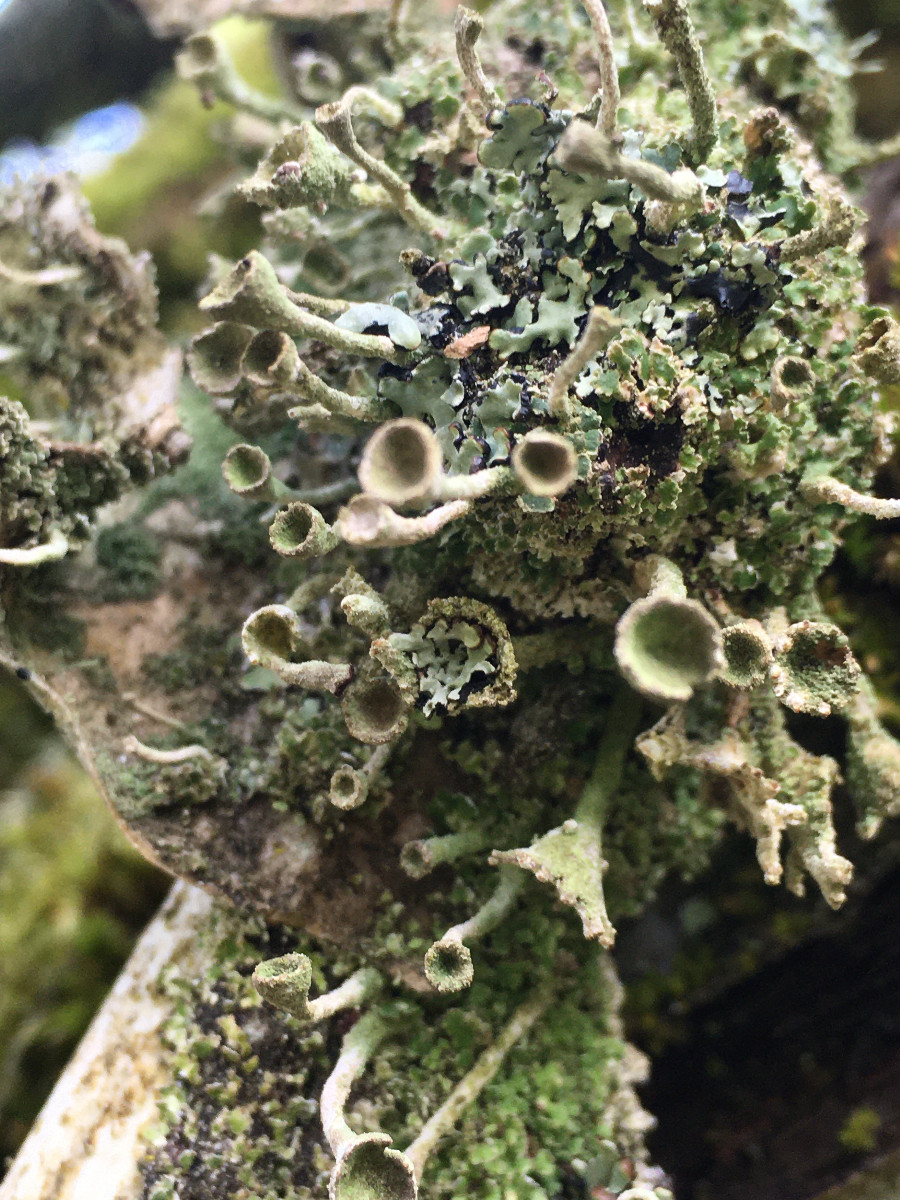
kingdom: Fungi
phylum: Ascomycota
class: Lecanoromycetes
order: Lecanorales
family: Cladoniaceae
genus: Cladonia
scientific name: Cladonia
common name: brungrøn bægerlav
